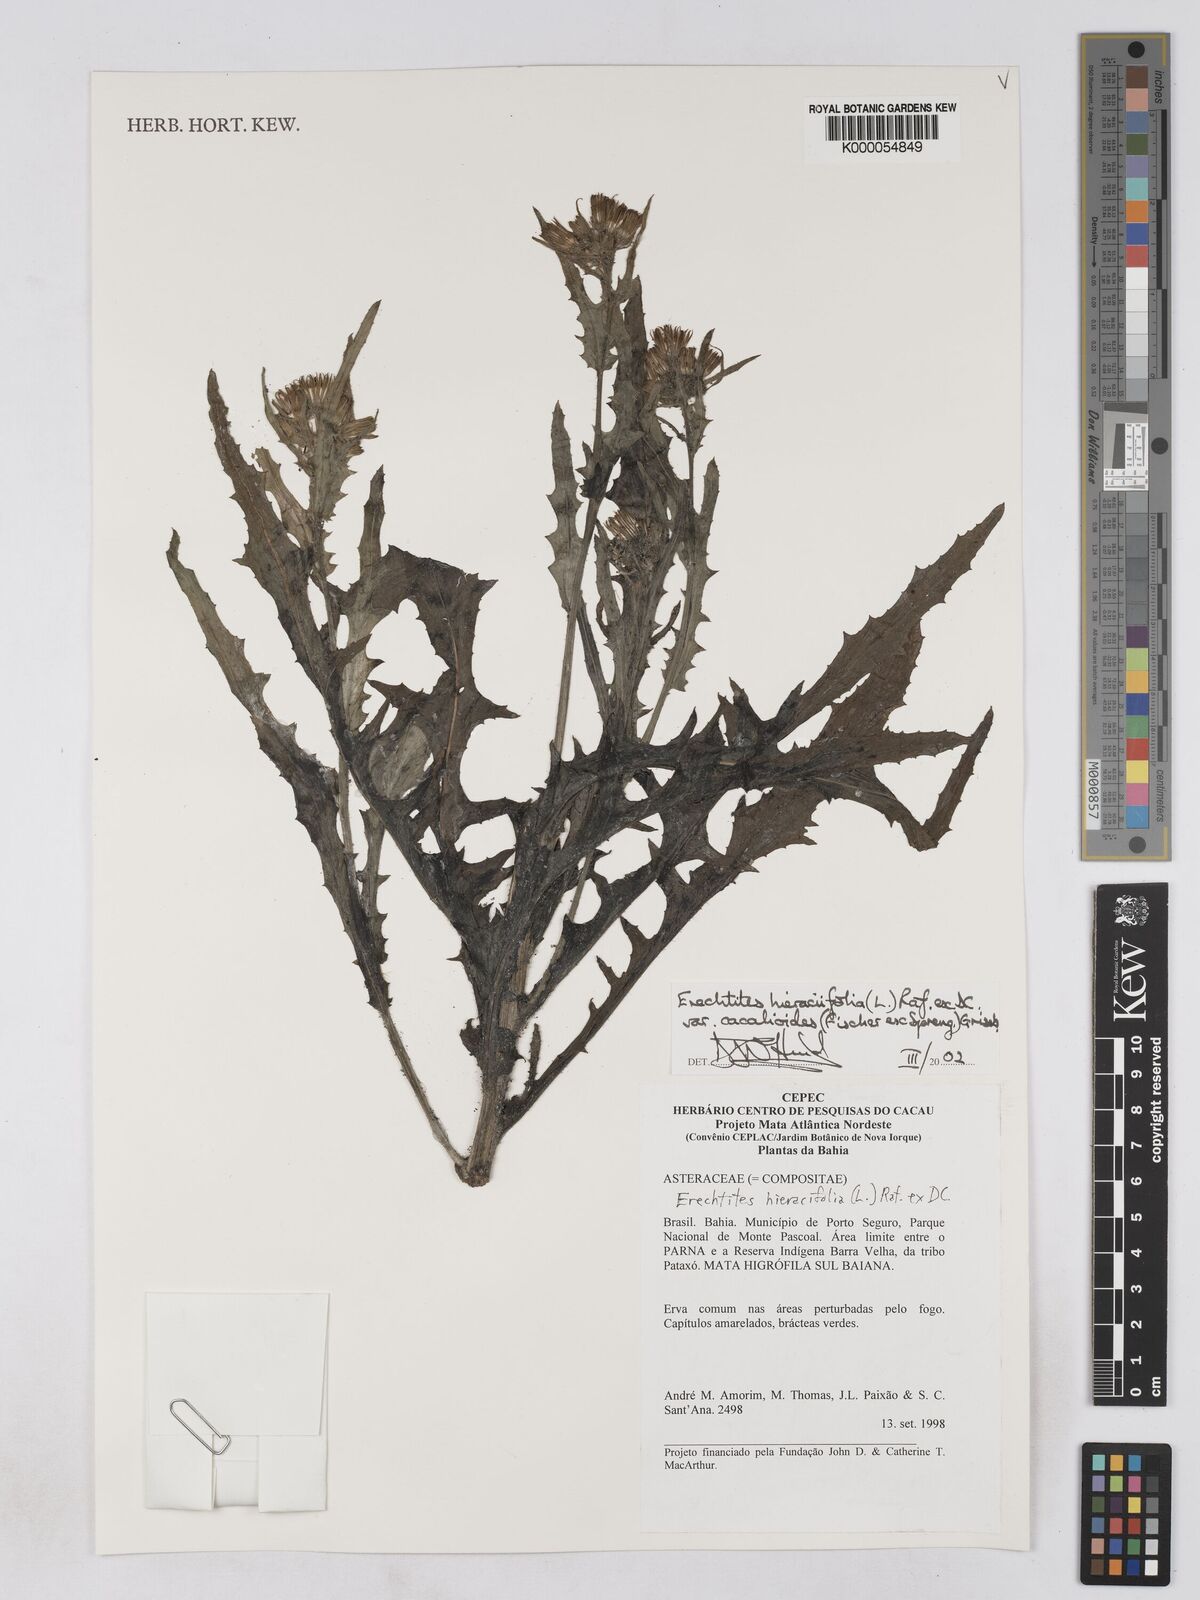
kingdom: Plantae
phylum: Tracheophyta
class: Magnoliopsida
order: Asterales
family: Asteraceae
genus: Erechtites
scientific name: Erechtites hieraciifolius
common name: American burnweed
